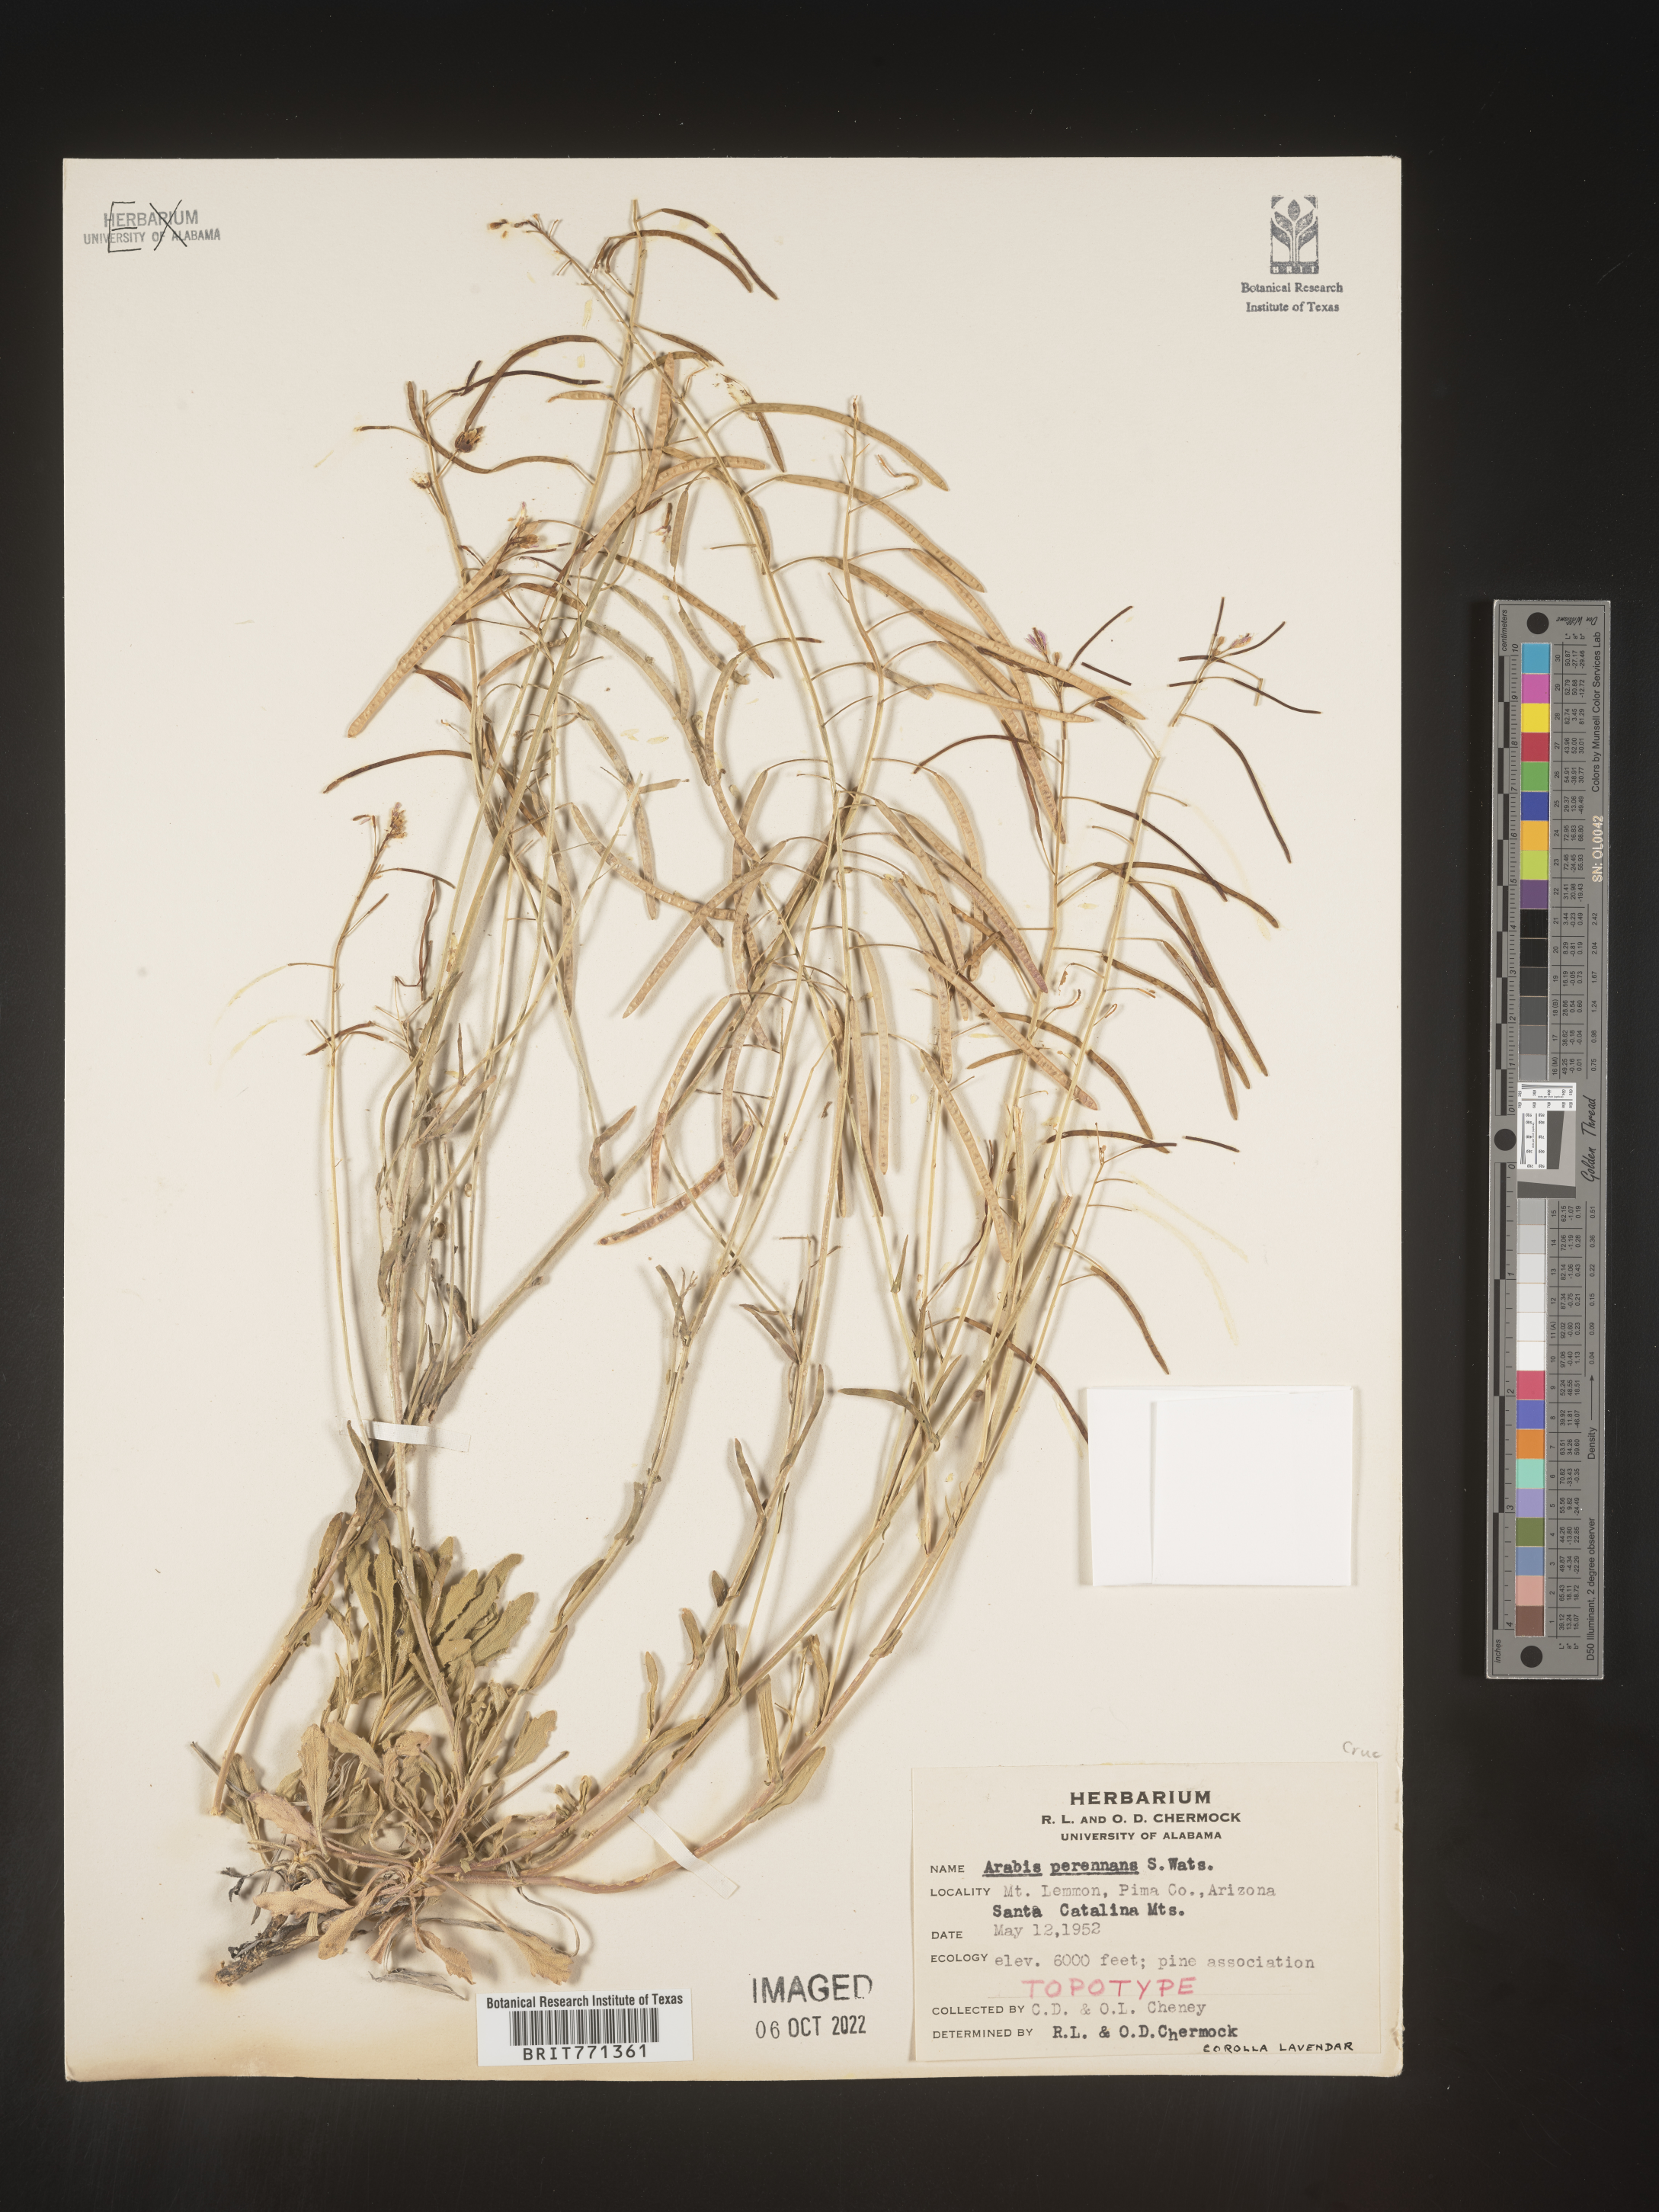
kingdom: Plantae
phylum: Tracheophyta
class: Magnoliopsida
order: Brassicales
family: Brassicaceae
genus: Arabis
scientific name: Arabis
